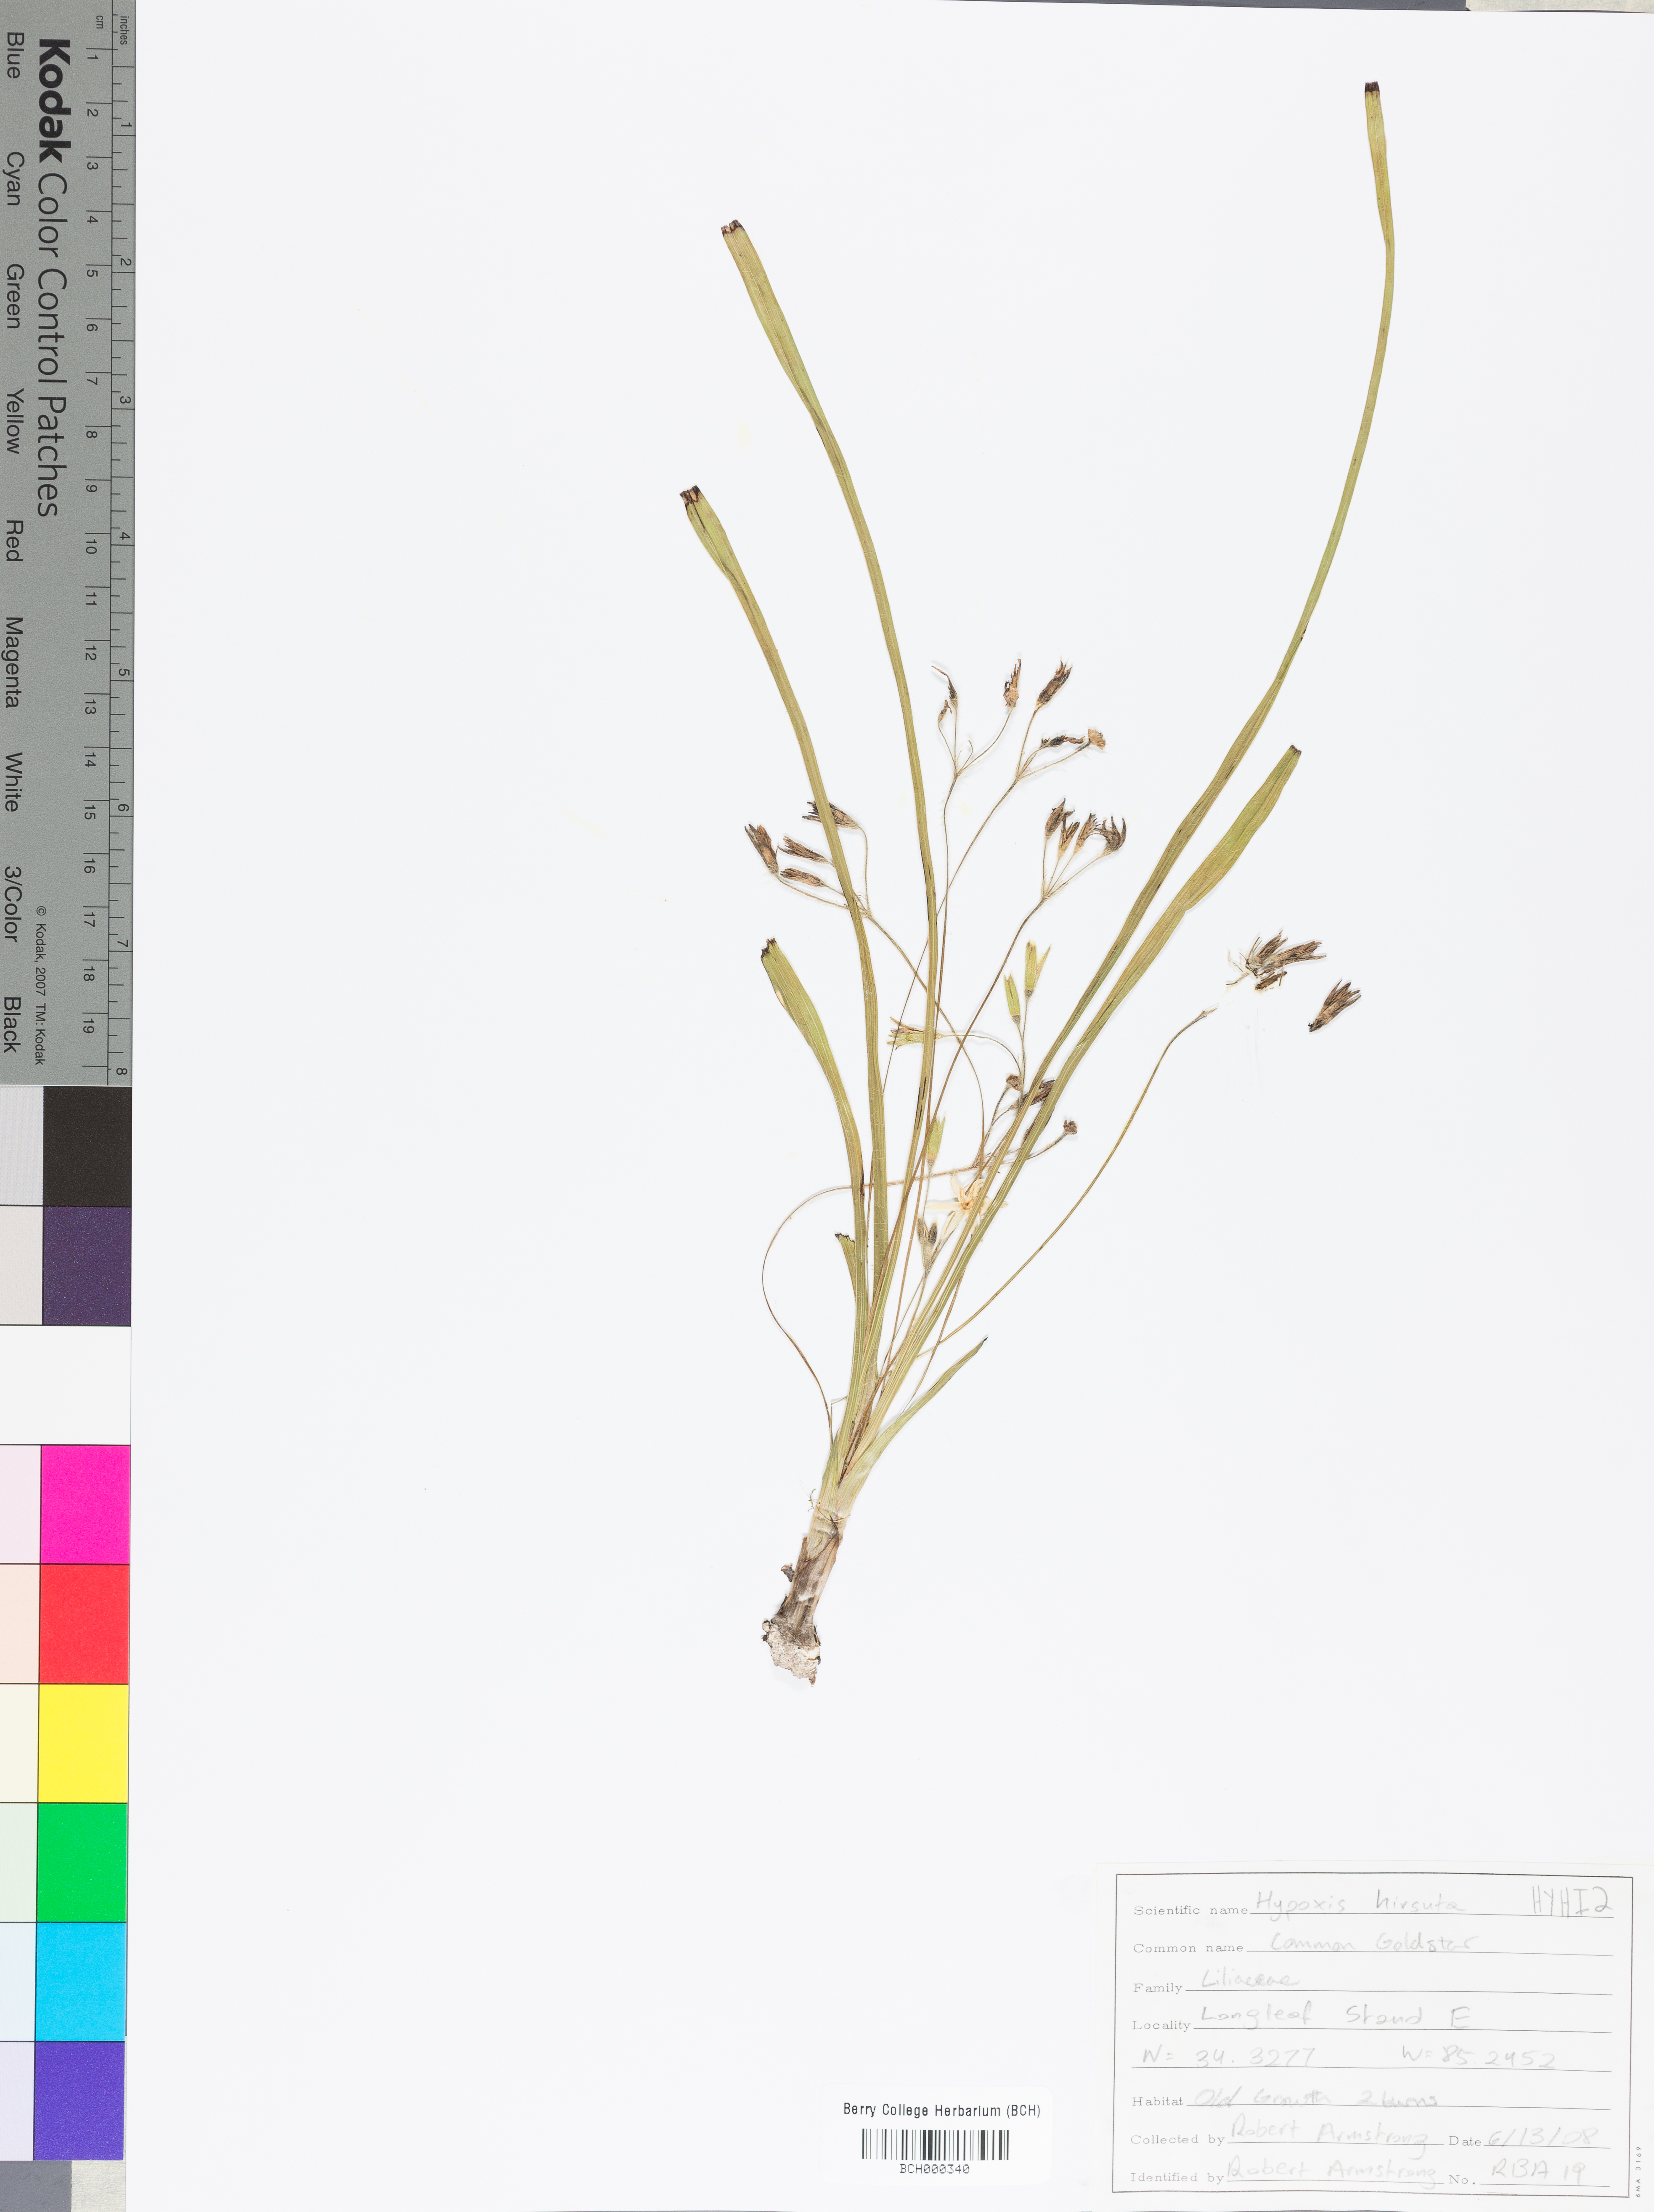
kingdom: Plantae
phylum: Tracheophyta
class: Liliopsida
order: Asparagales
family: Hypoxidaceae
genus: Hypoxis
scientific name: Hypoxis hirsuta
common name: Common goldstar
